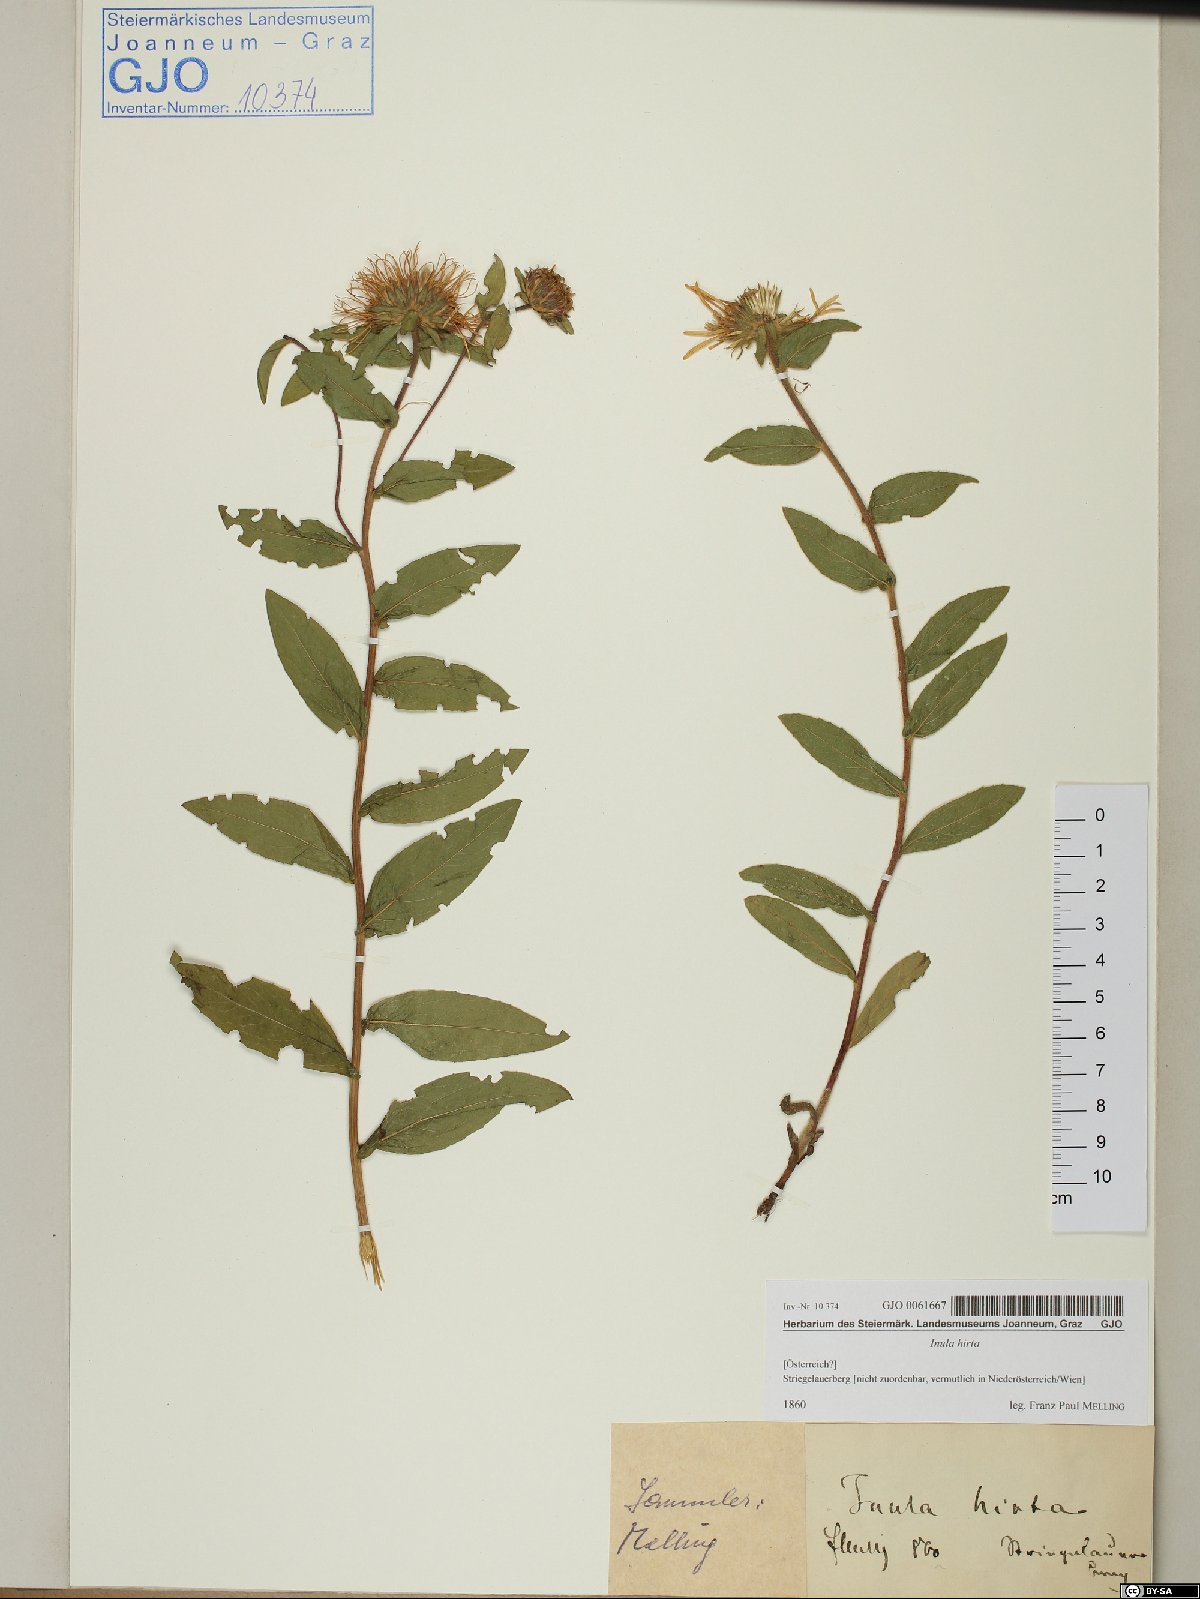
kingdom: Plantae
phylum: Tracheophyta
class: Magnoliopsida
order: Asterales
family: Asteraceae
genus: Pentanema
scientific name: Pentanema hirtum
